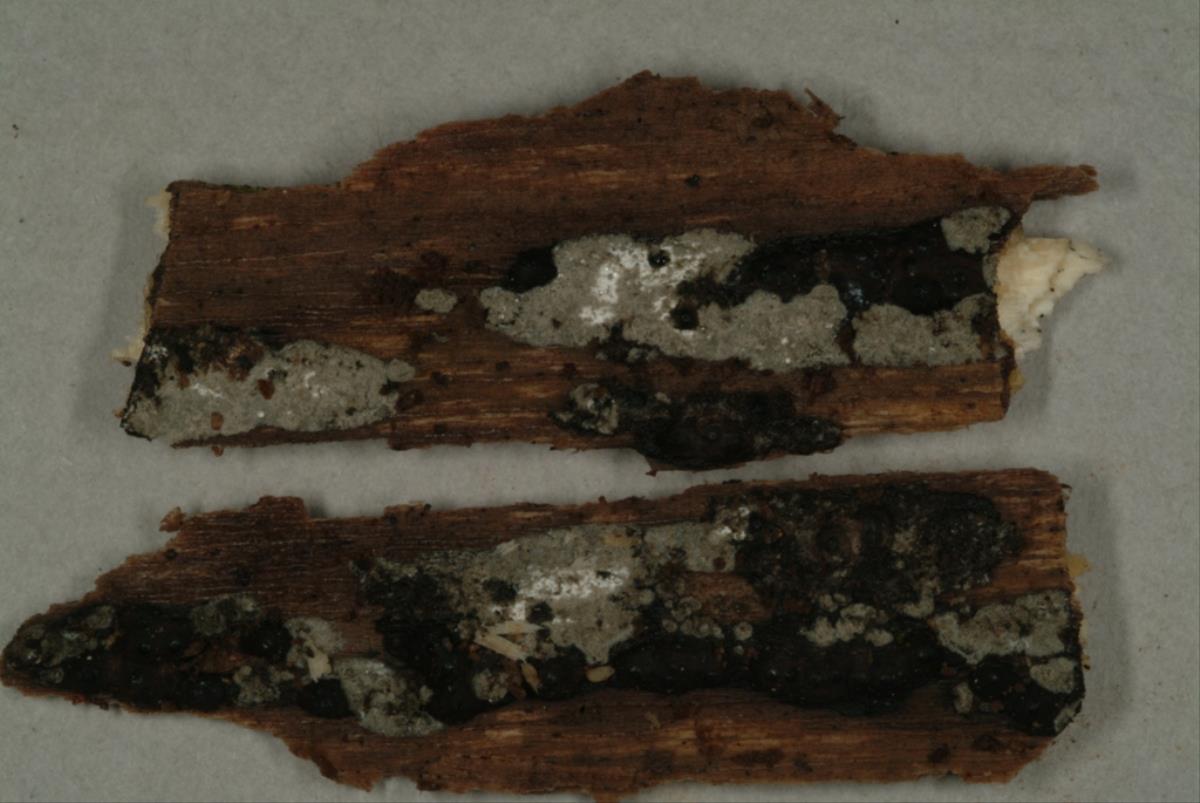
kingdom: Fungi
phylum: Ascomycota
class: Sordariomycetes
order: Xylariales
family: Hypoxylaceae
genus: Annulohypoxylon
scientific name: Annulohypoxylon
